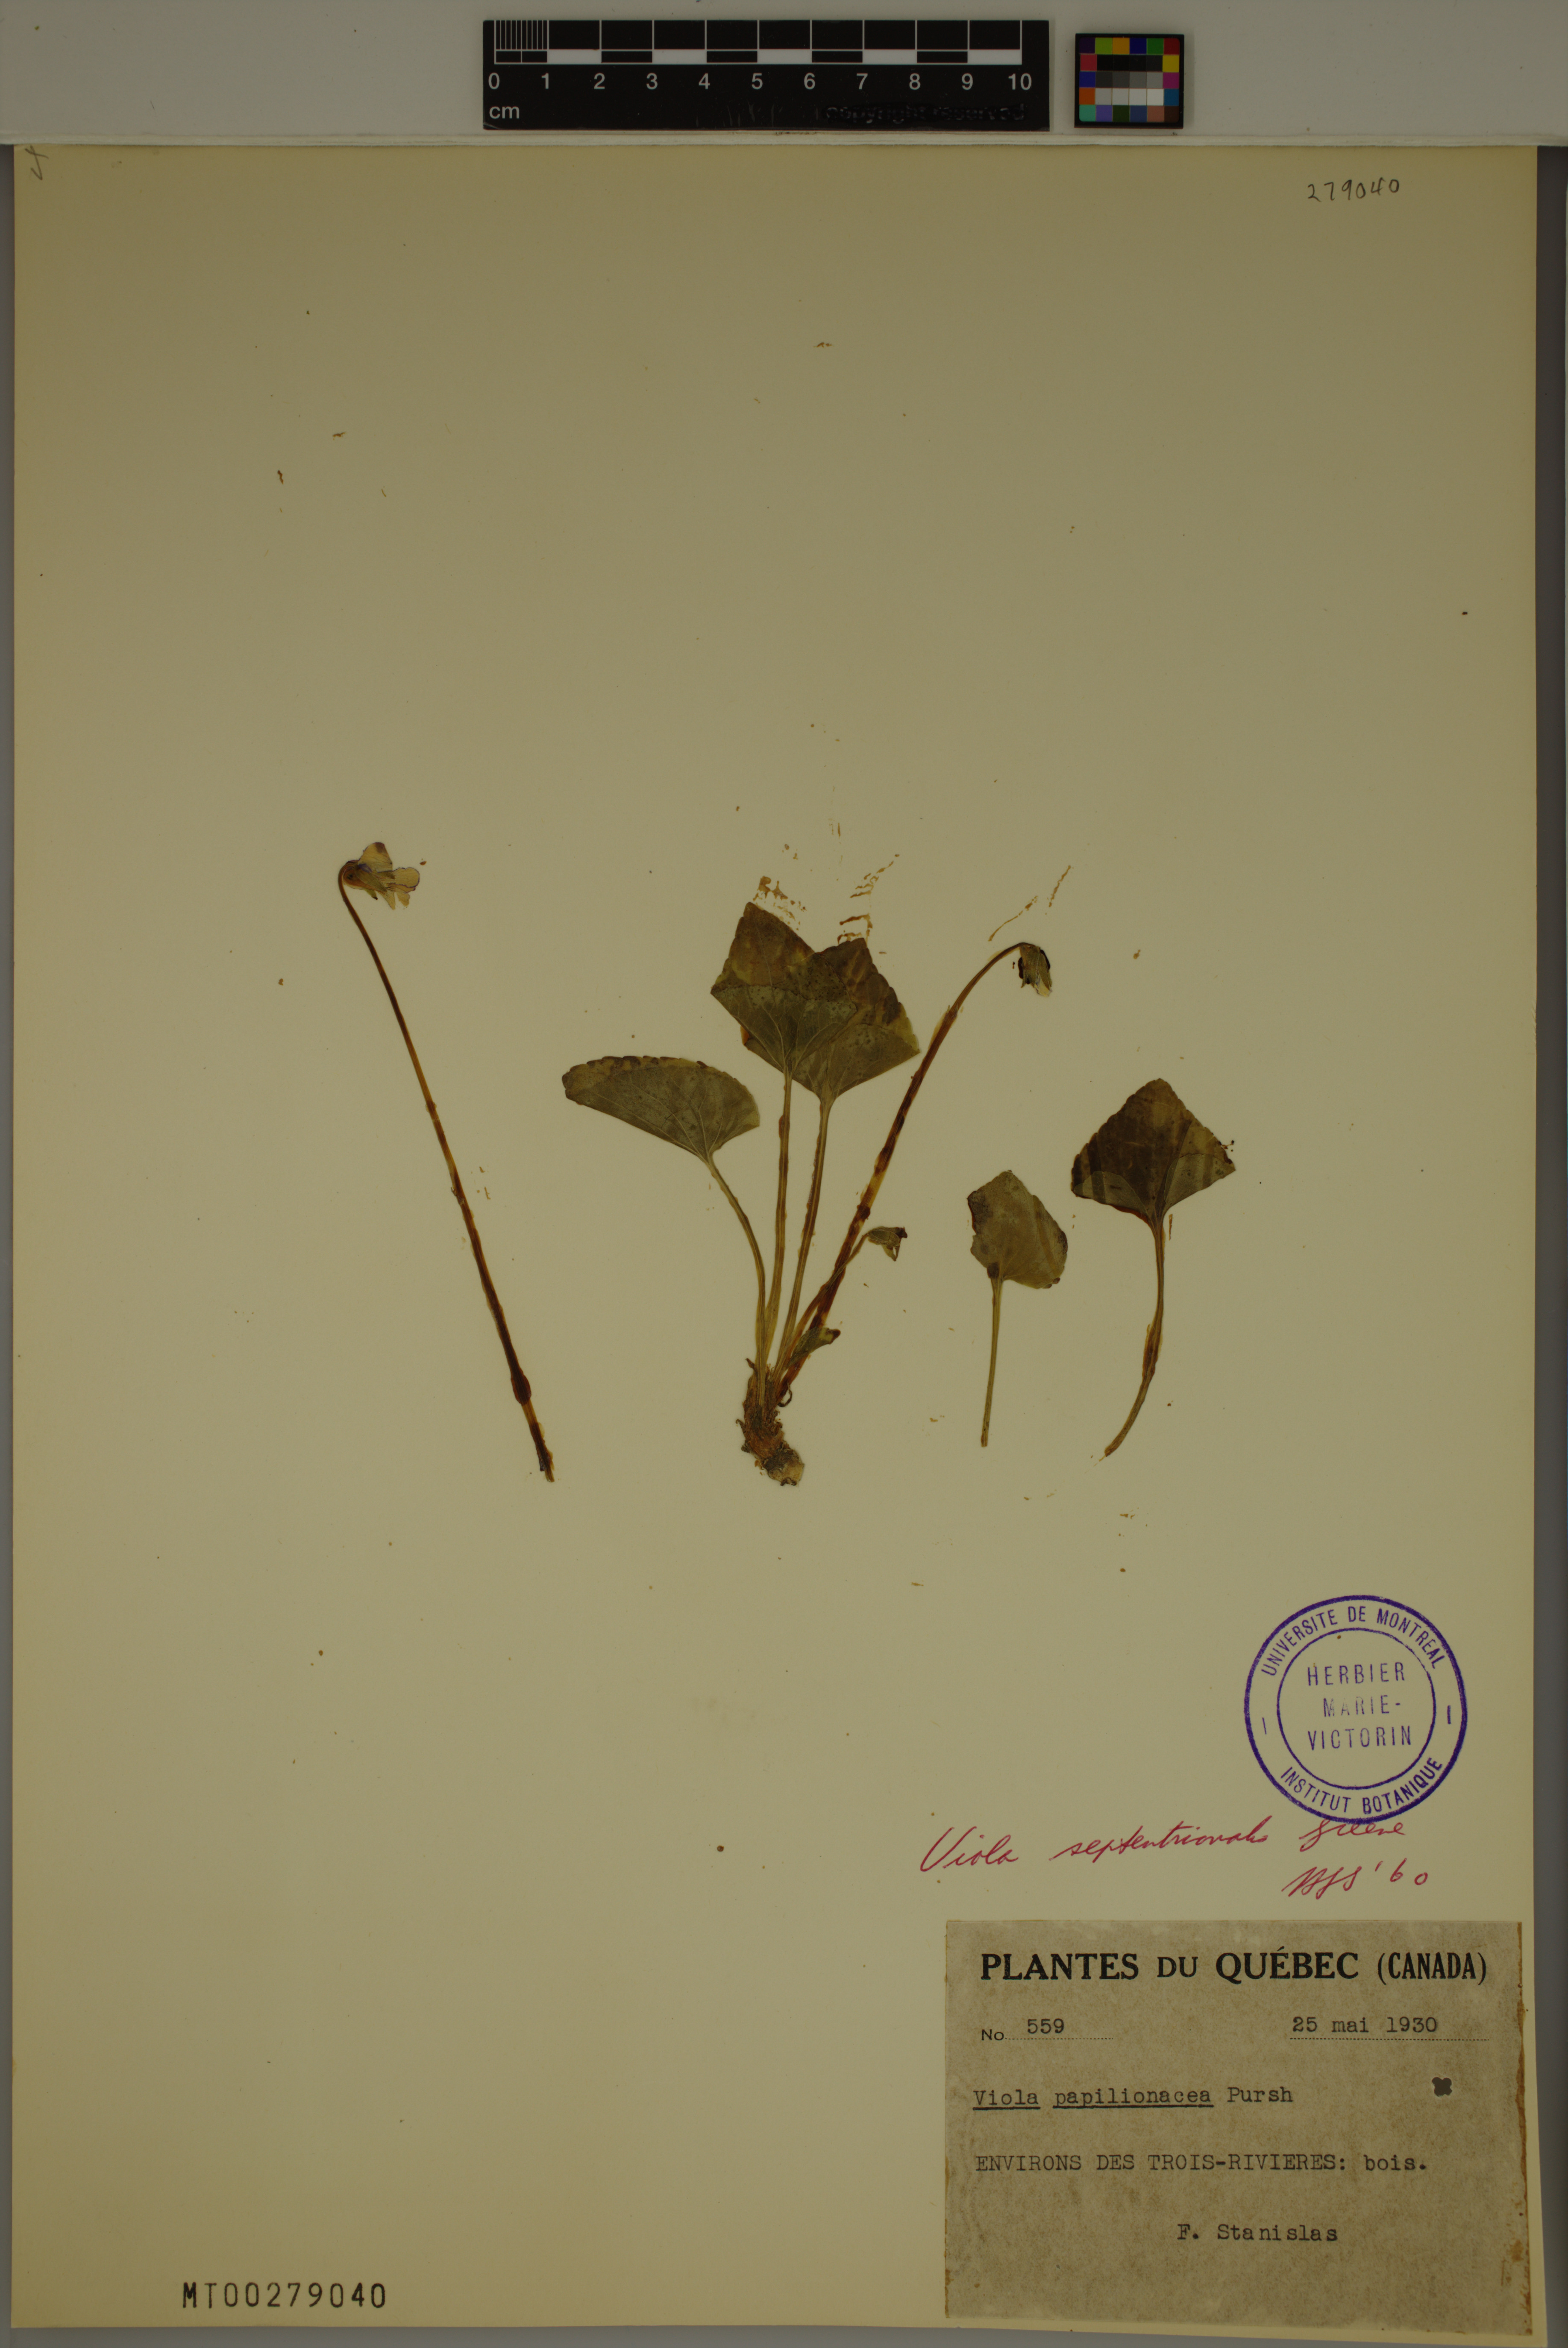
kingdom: Plantae
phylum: Tracheophyta
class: Magnoliopsida
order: Malpighiales
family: Violaceae
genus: Viola
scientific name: Viola septentrionalis
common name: Northern woodland violet
